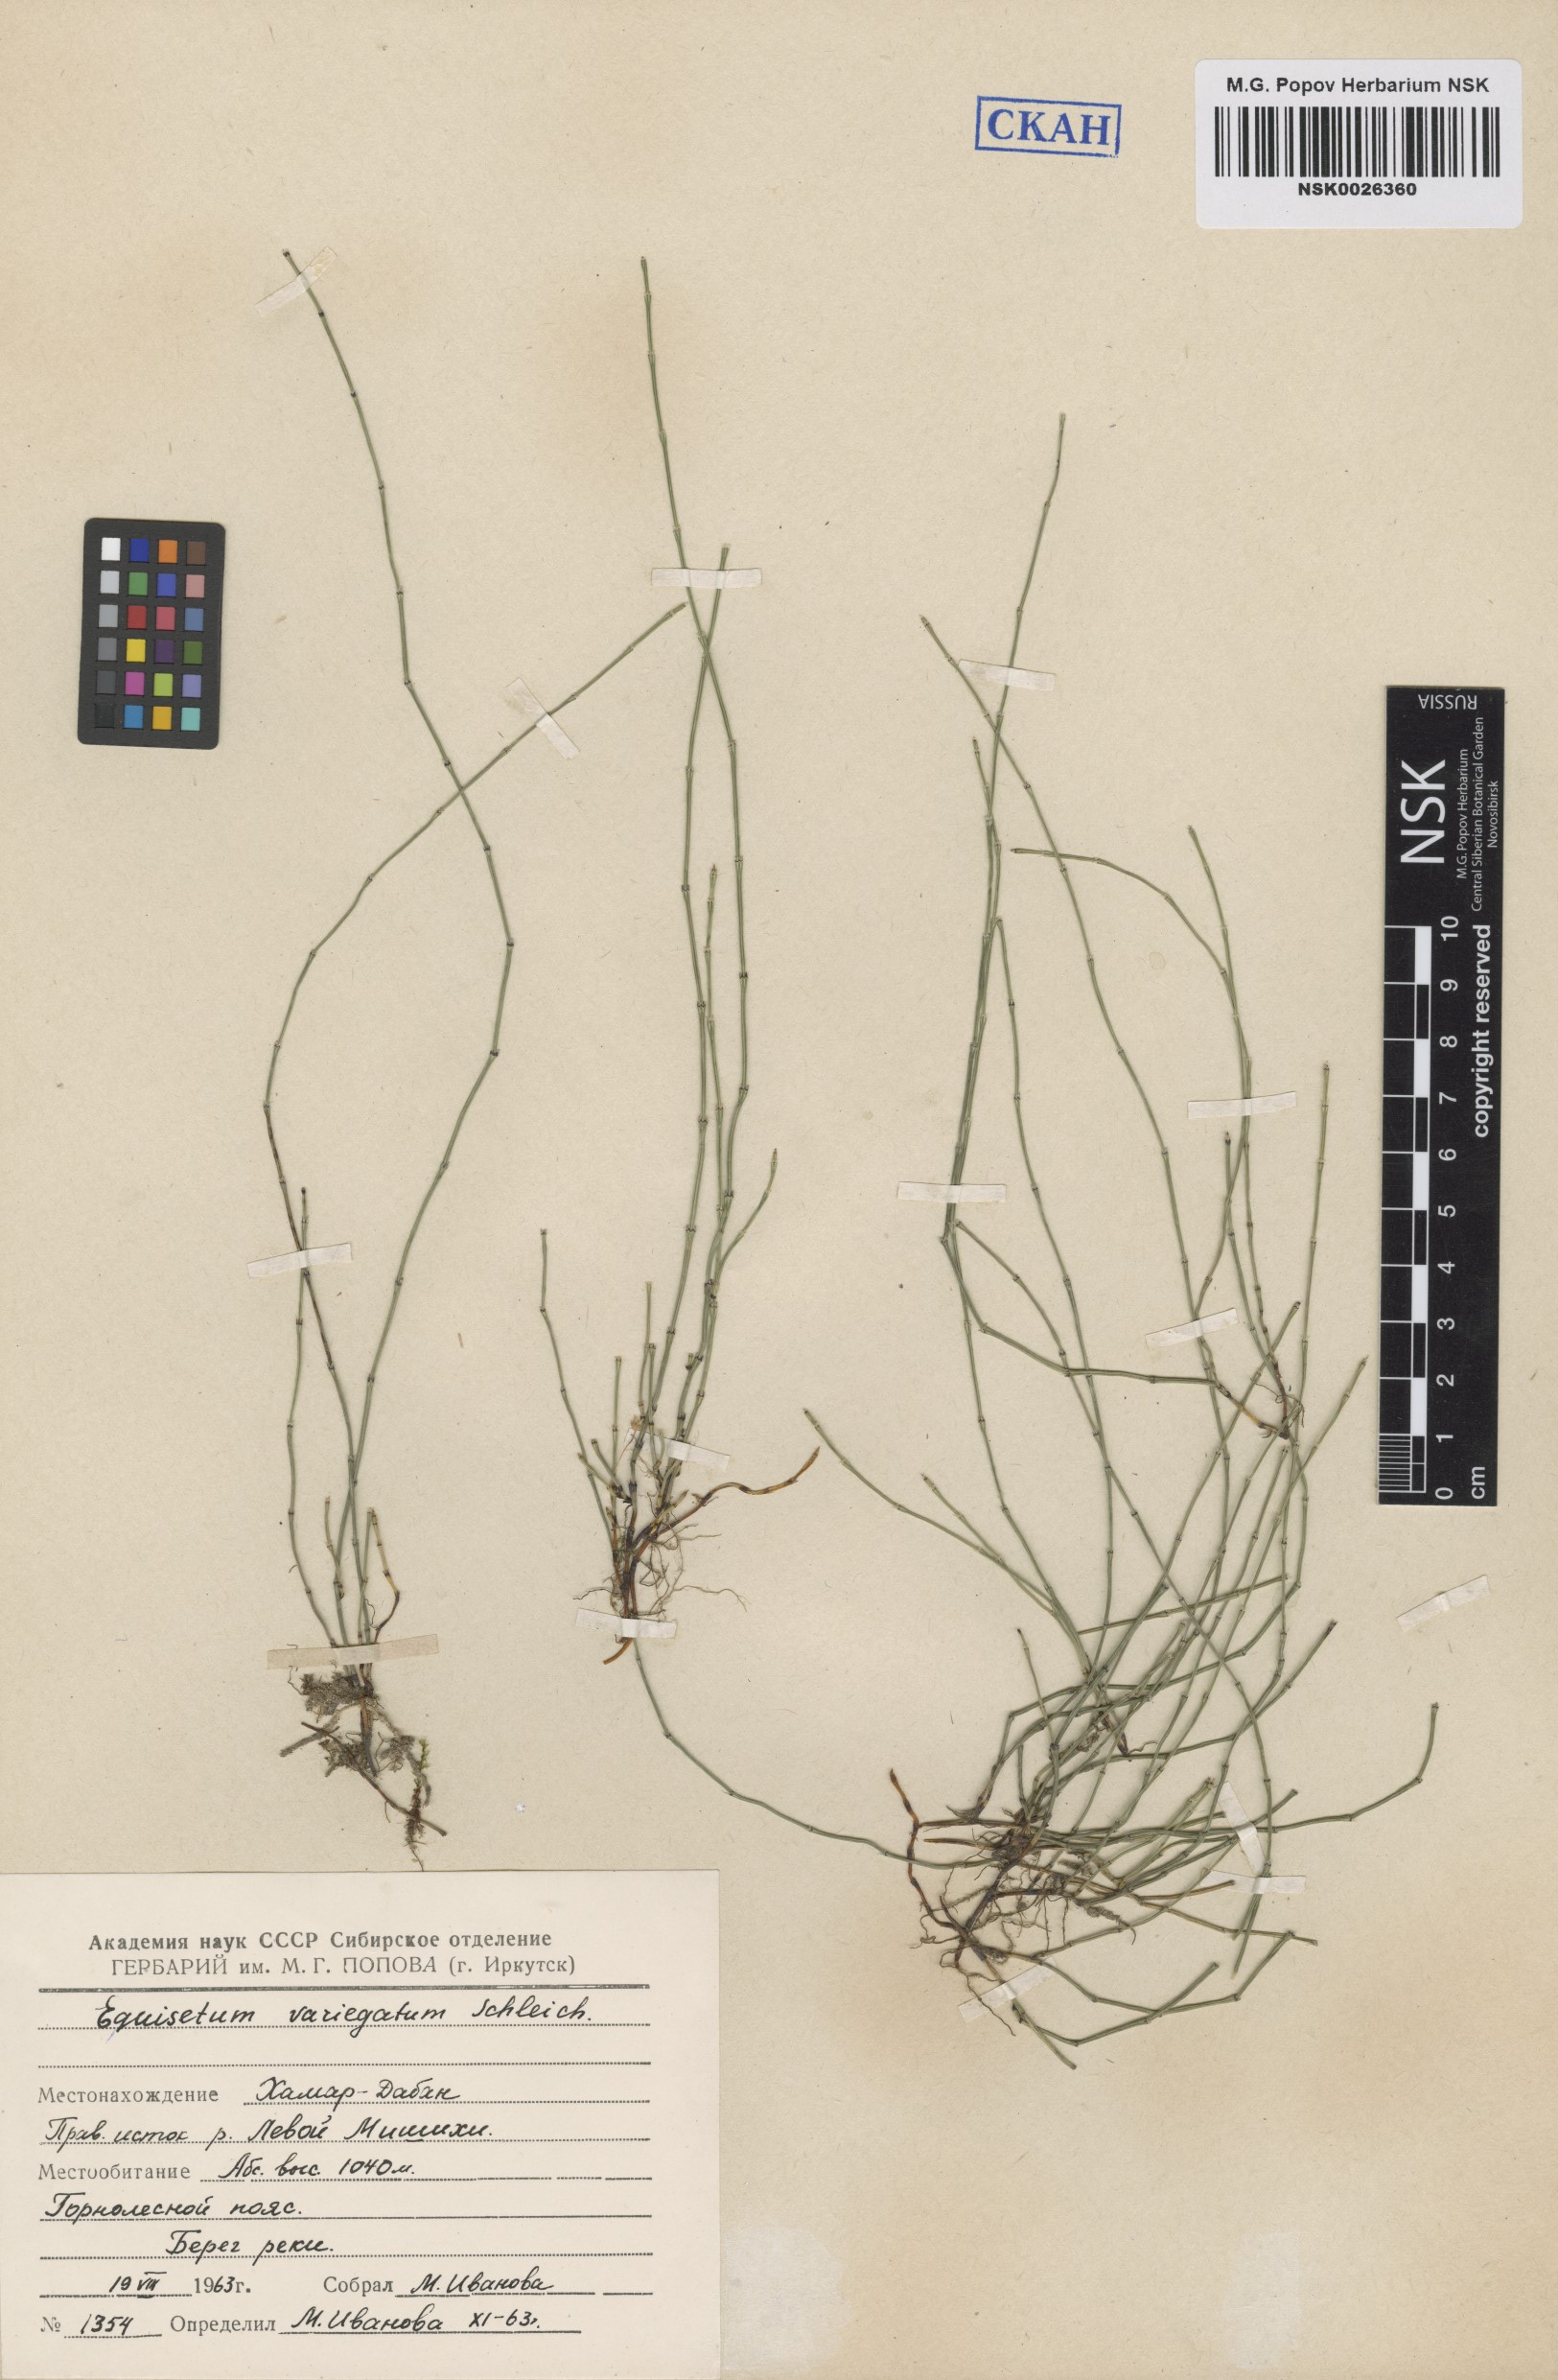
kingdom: Plantae
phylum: Tracheophyta
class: Polypodiopsida
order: Equisetales
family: Equisetaceae
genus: Equisetum
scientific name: Equisetum variegatum
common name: Variegated horsetail
